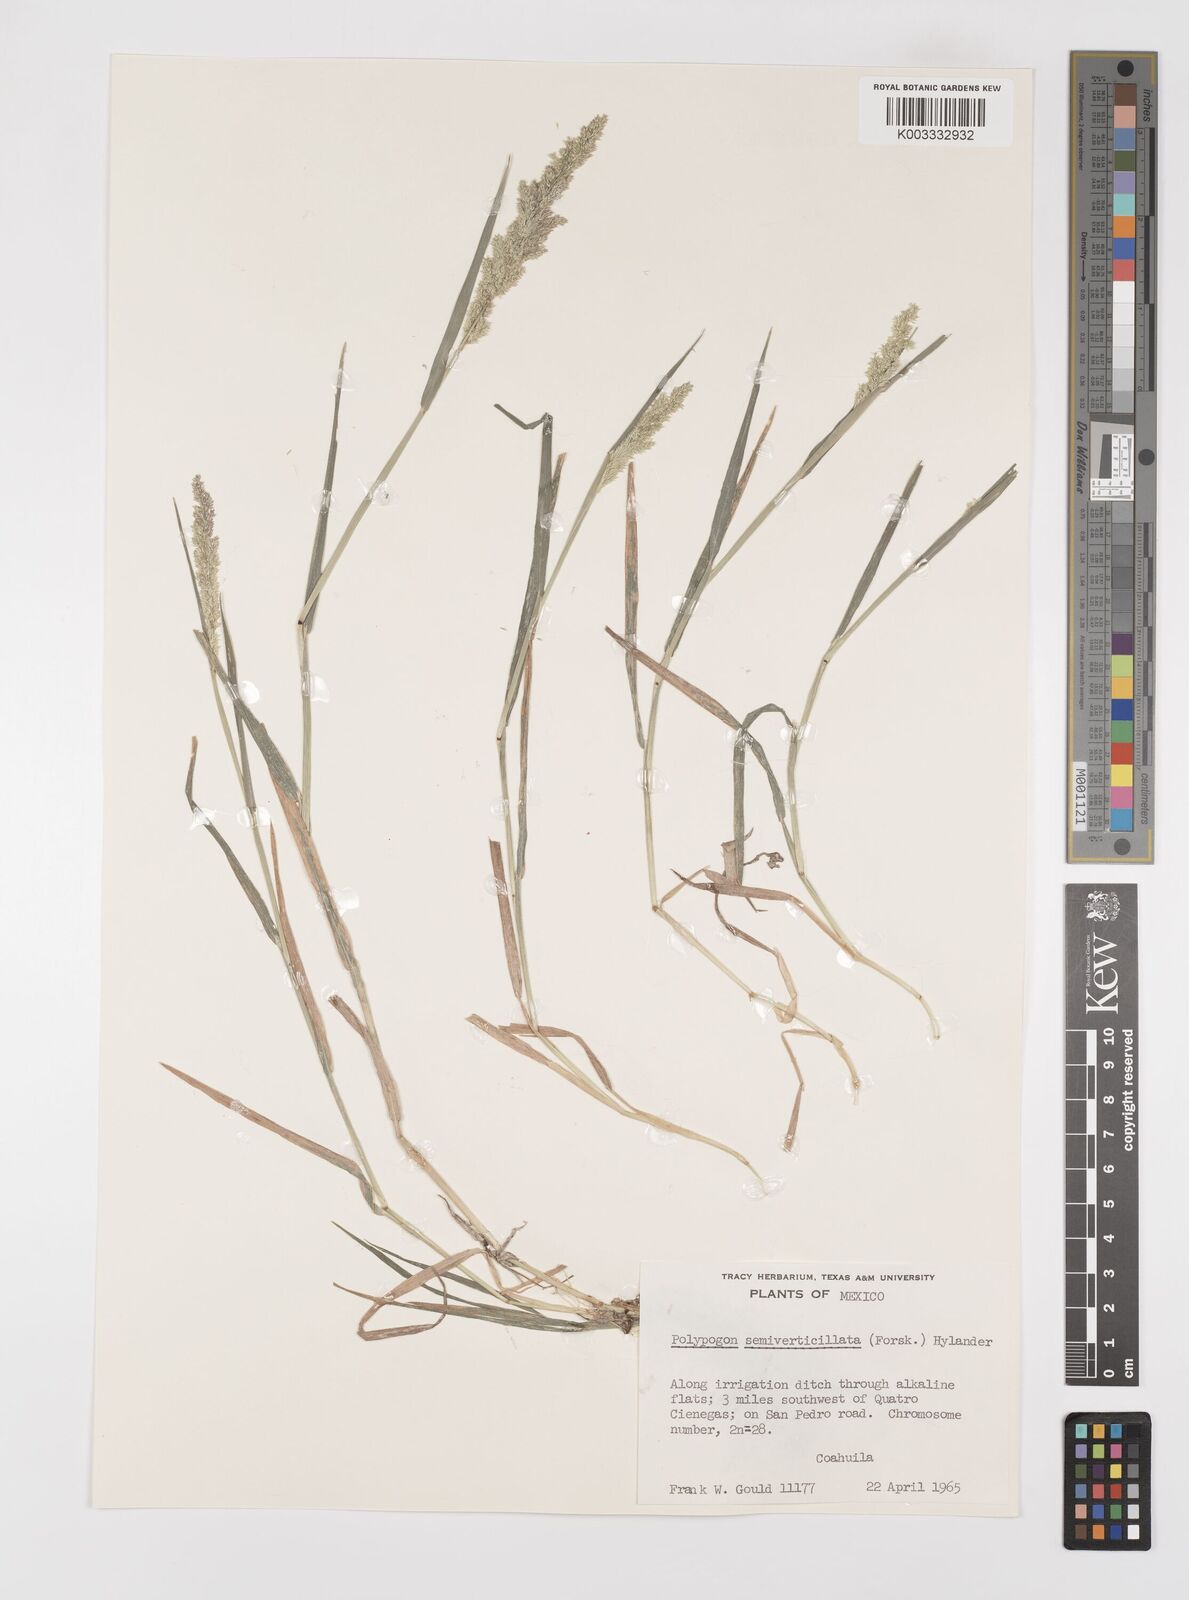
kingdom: Plantae
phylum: Tracheophyta
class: Liliopsida
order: Poales
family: Poaceae
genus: Polypogon
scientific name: Polypogon viridis
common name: Water bent
